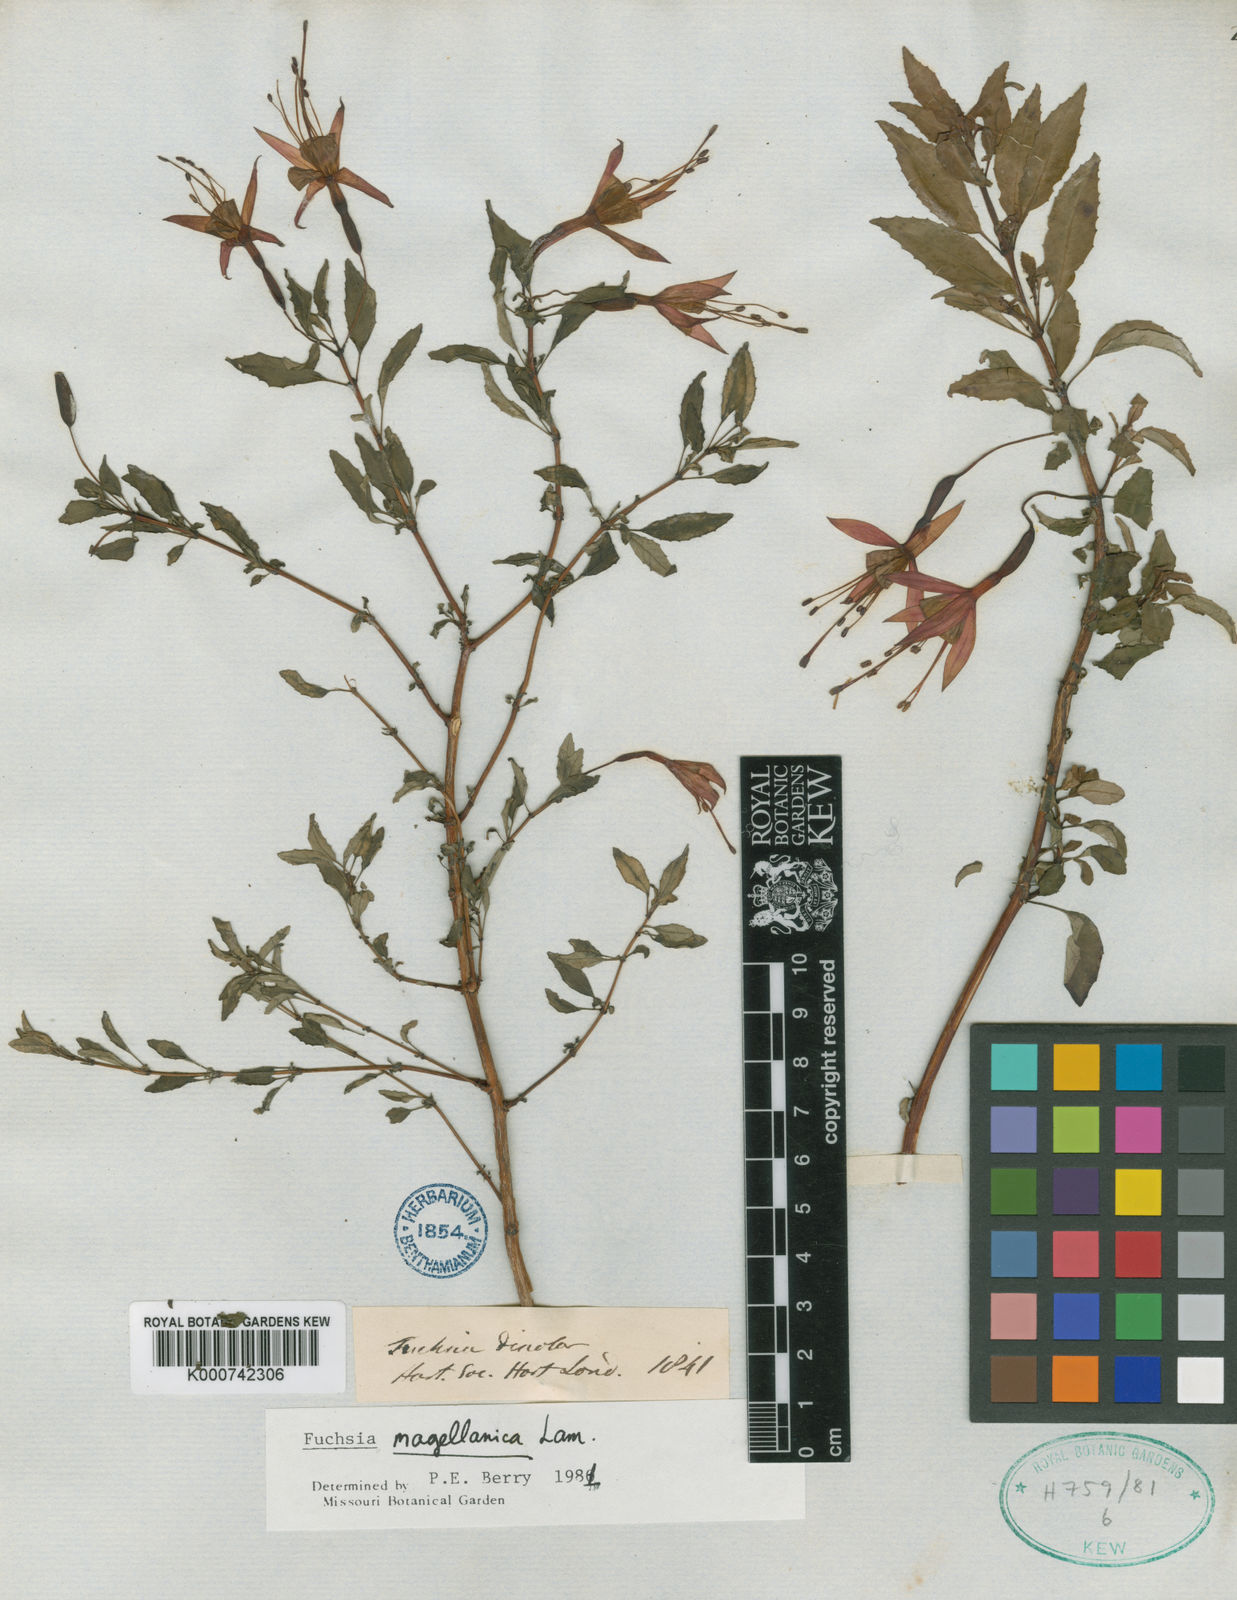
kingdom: Plantae
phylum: Tracheophyta
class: Magnoliopsida
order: Myrtales
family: Onagraceae
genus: Fuchsia
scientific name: Fuchsia magellanica
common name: Hardy fuchsia
